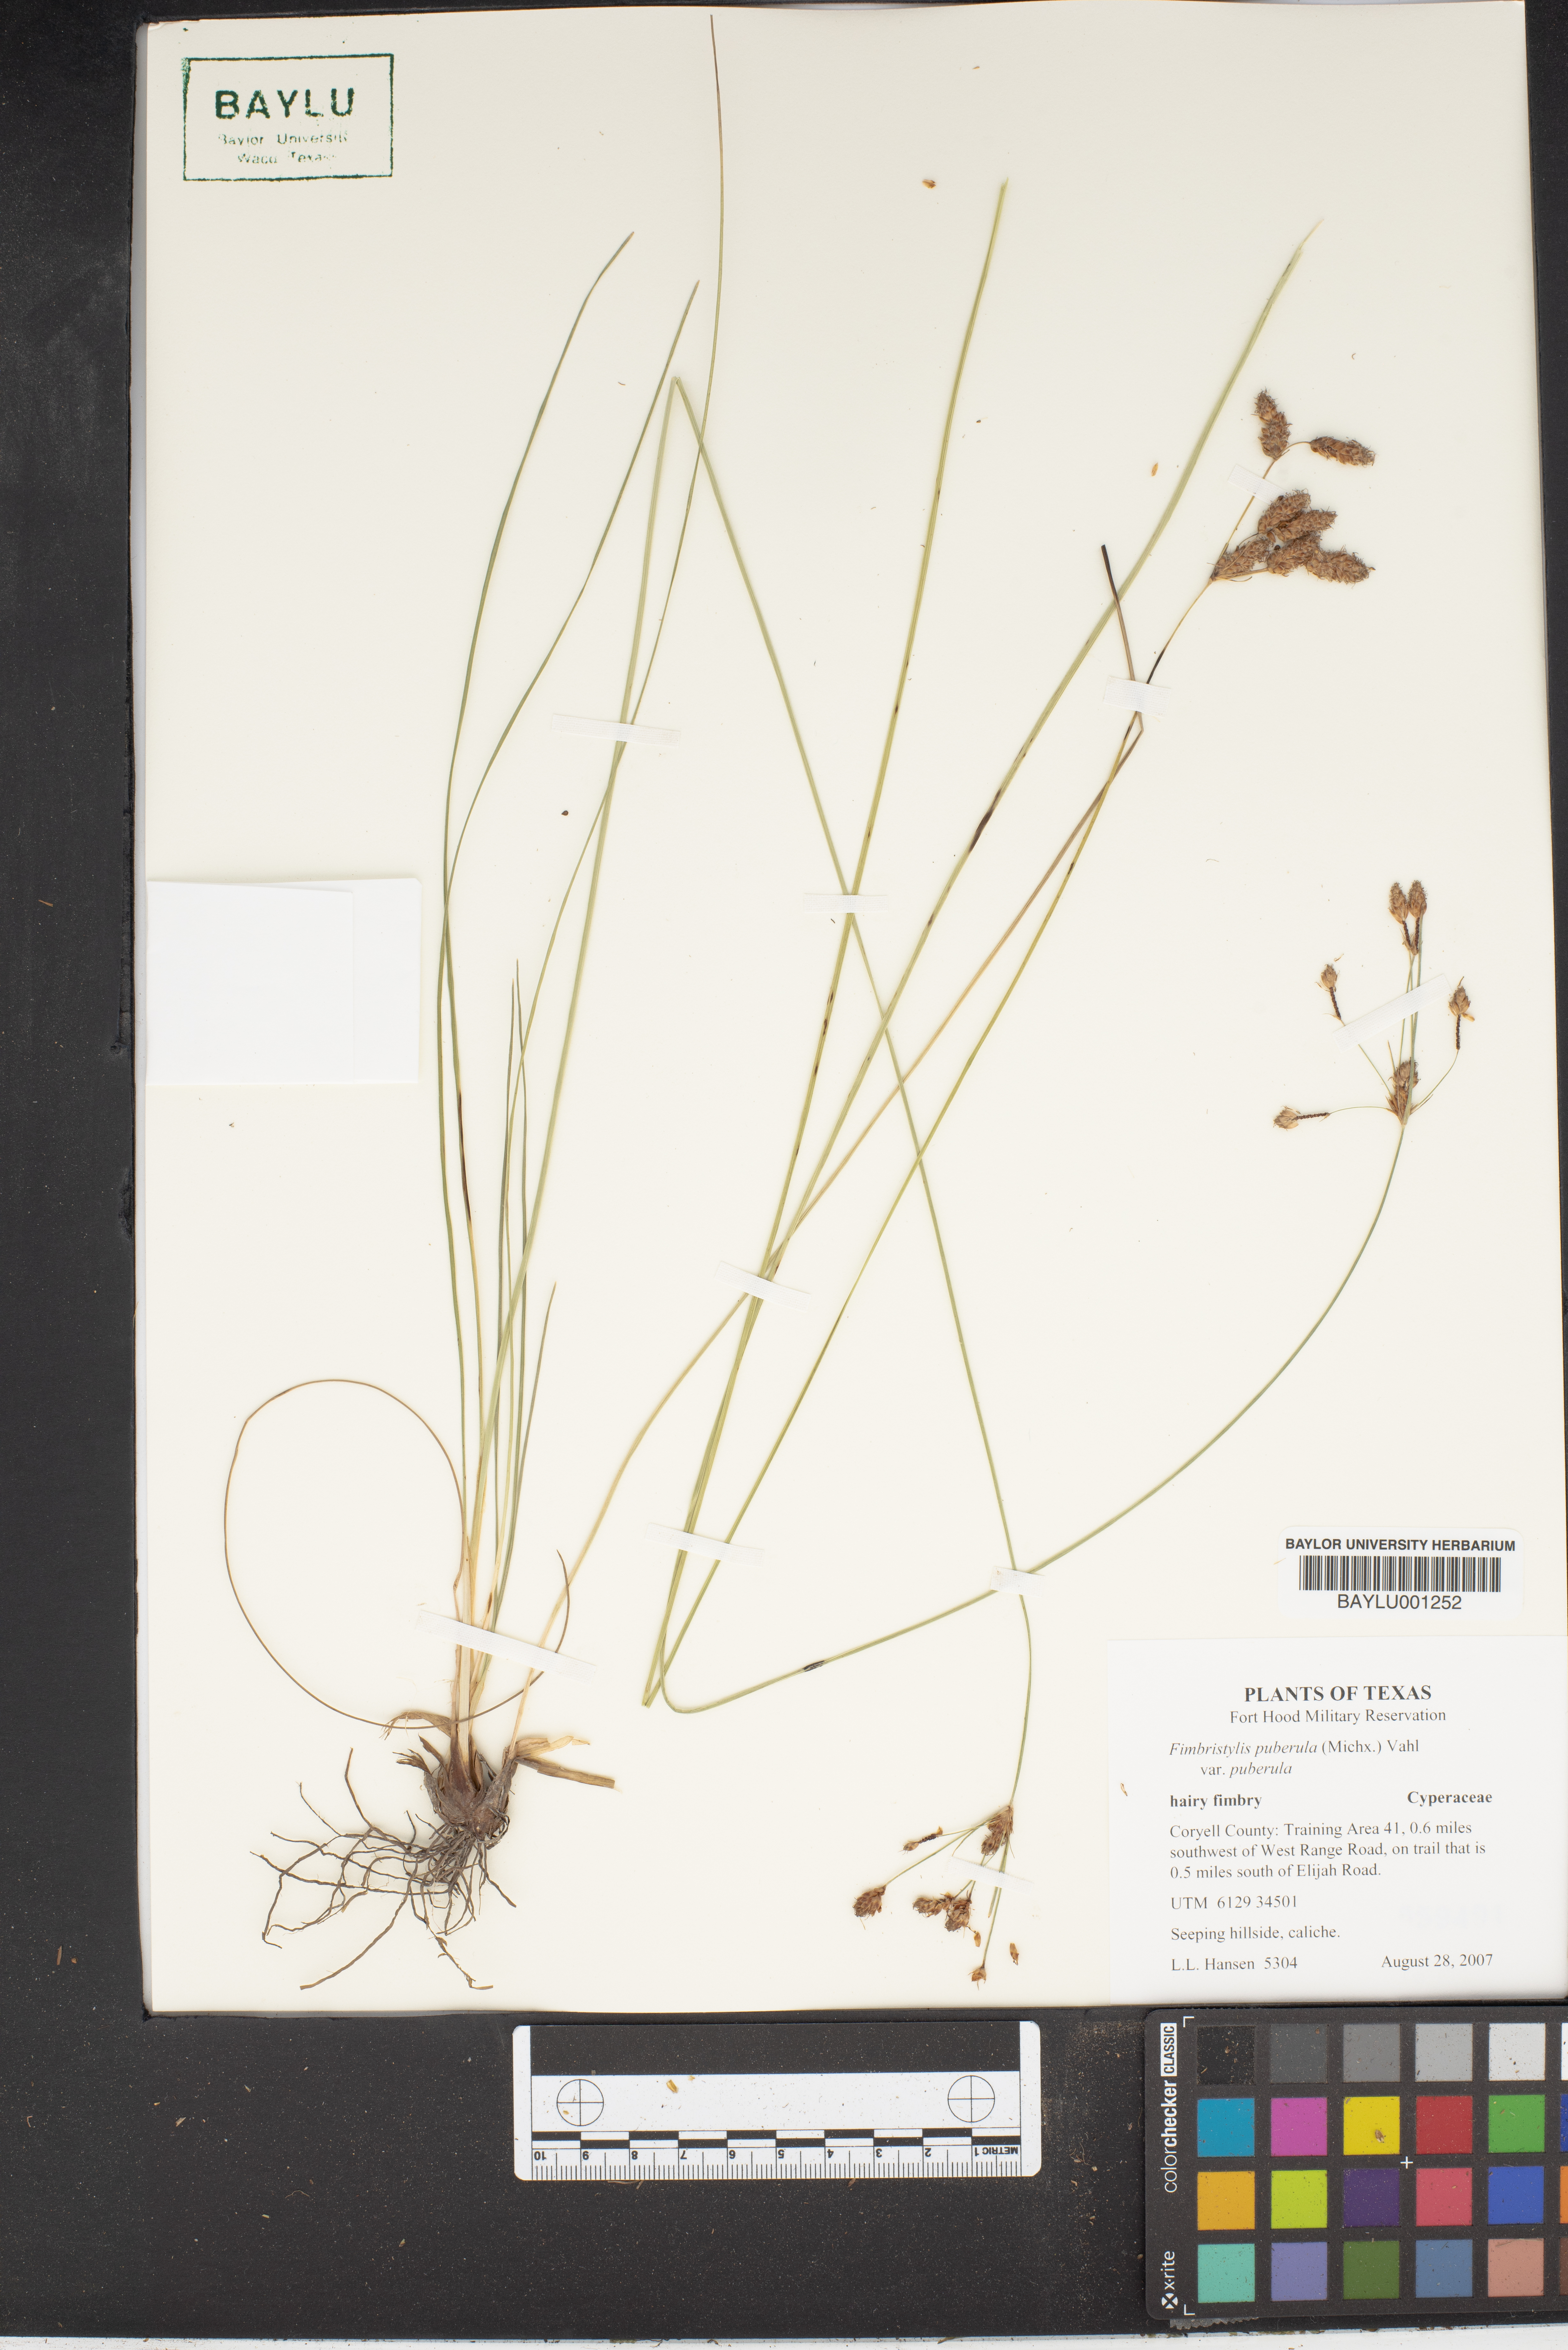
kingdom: Plantae
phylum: Tracheophyta
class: Liliopsida
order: Poales
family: Cyperaceae
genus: Fimbristylis
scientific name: Fimbristylis puberula
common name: Hairy fimbristylis
